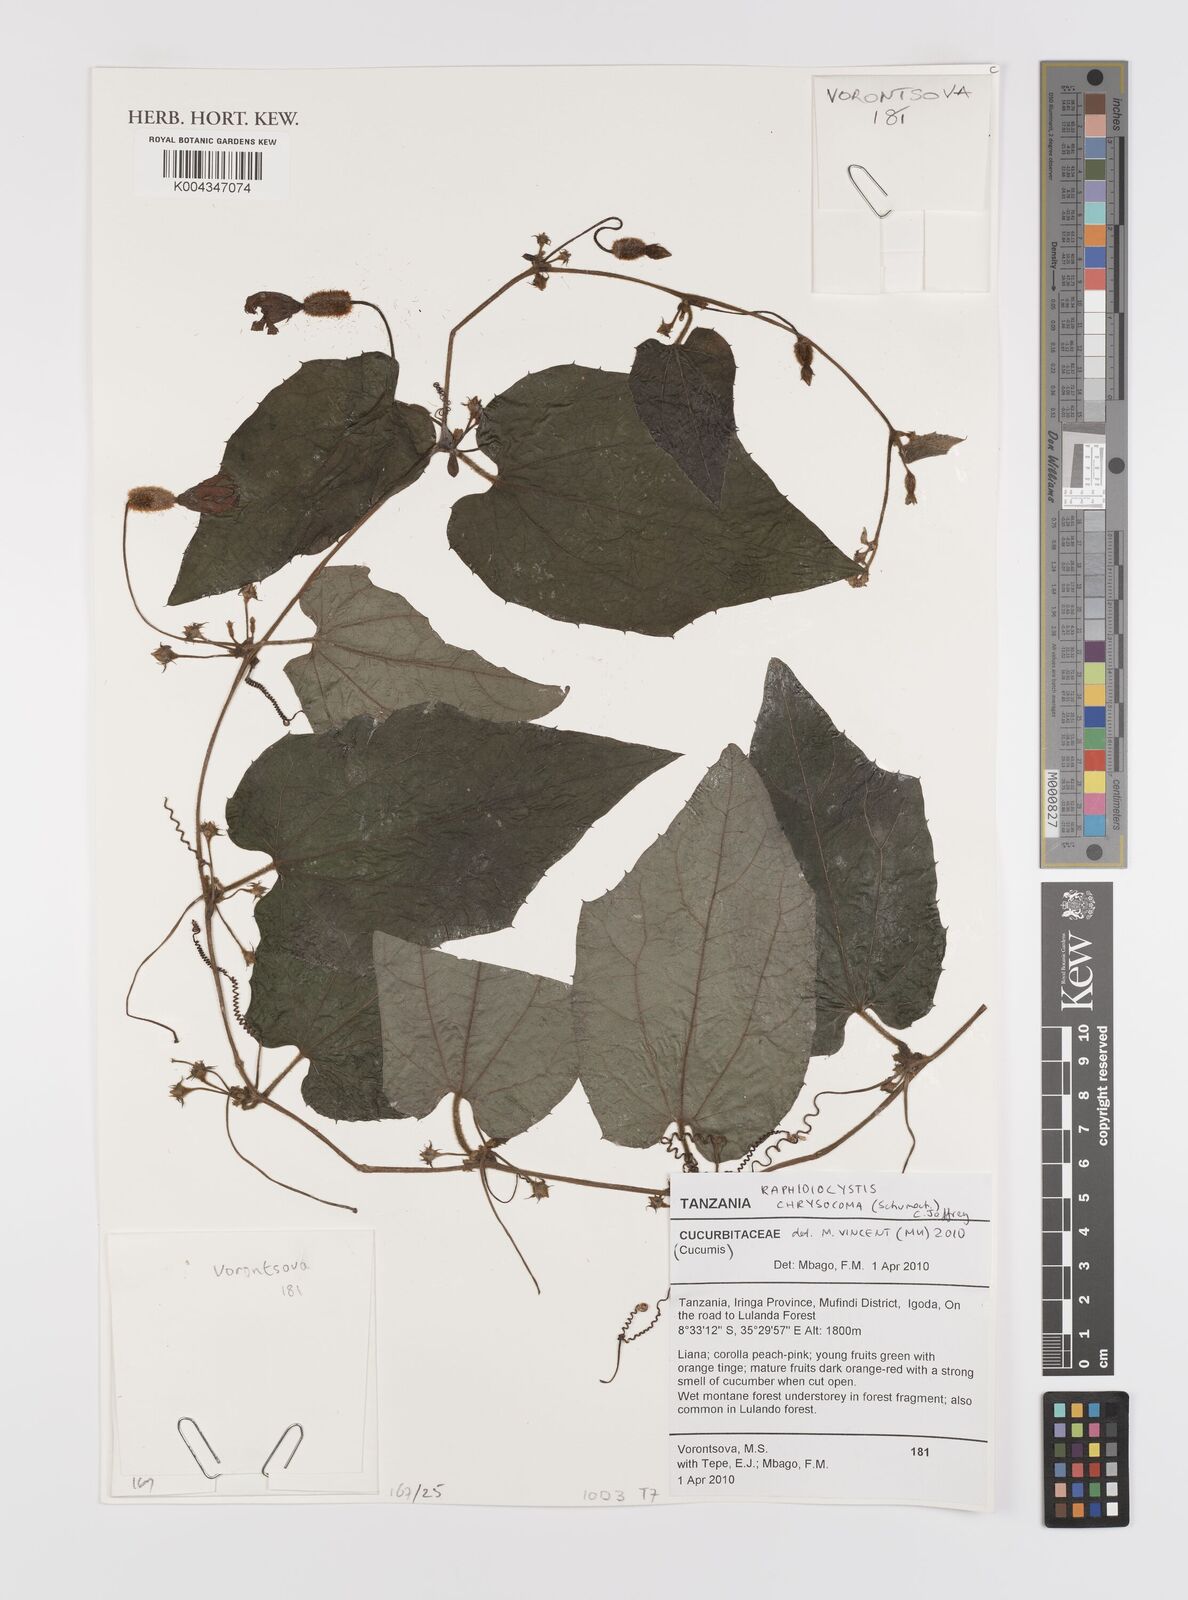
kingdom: Plantae
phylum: Tracheophyta
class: Magnoliopsida
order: Cucurbitales
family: Cucurbitaceae
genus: Raphidiocystis
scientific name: Raphidiocystis chrysocoma
